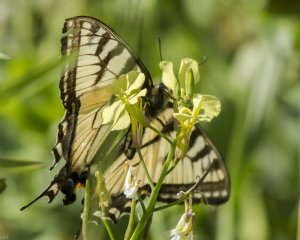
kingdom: Animalia
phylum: Arthropoda
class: Insecta
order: Lepidoptera
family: Papilionidae
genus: Pterourus
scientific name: Pterourus canadensis
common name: Canadian Tiger Swallowtail
